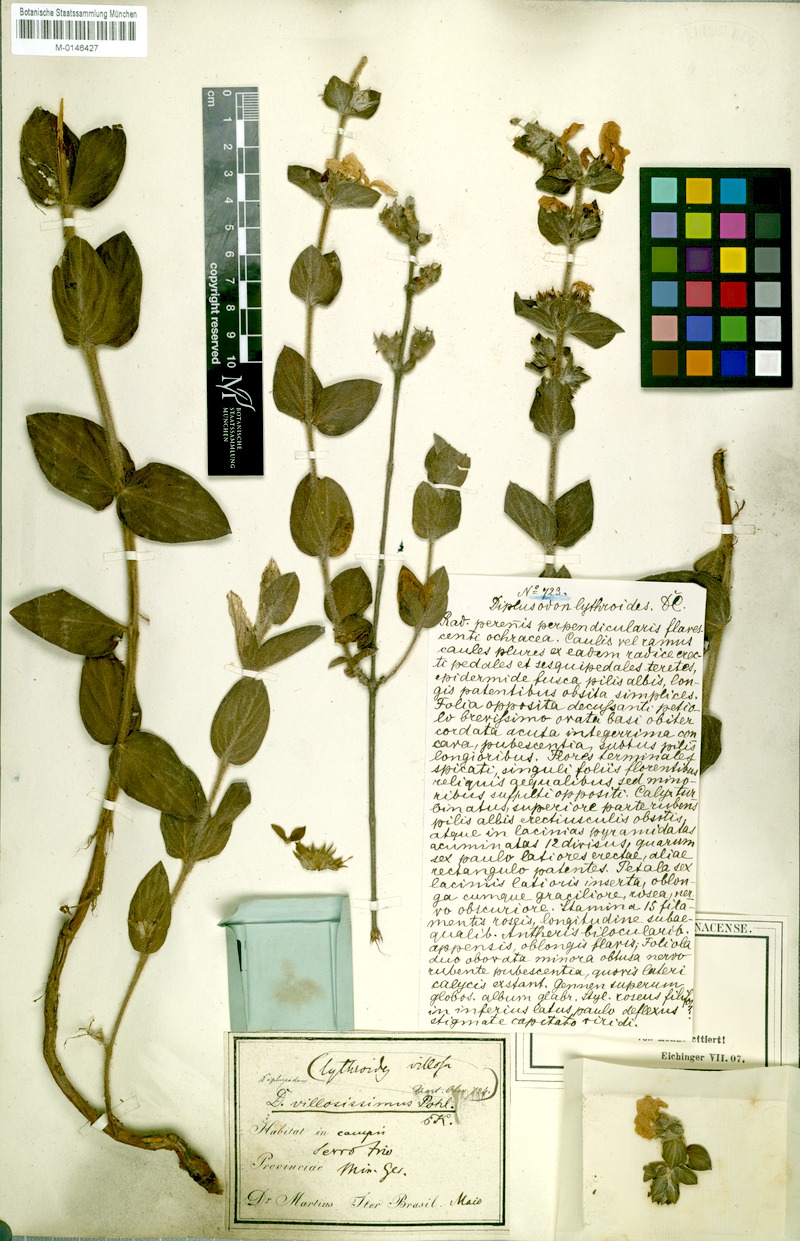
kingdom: Plantae
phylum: Tracheophyta
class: Magnoliopsida
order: Myrtales
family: Lythraceae
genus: Diplusodon
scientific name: Diplusodon villosissimus
